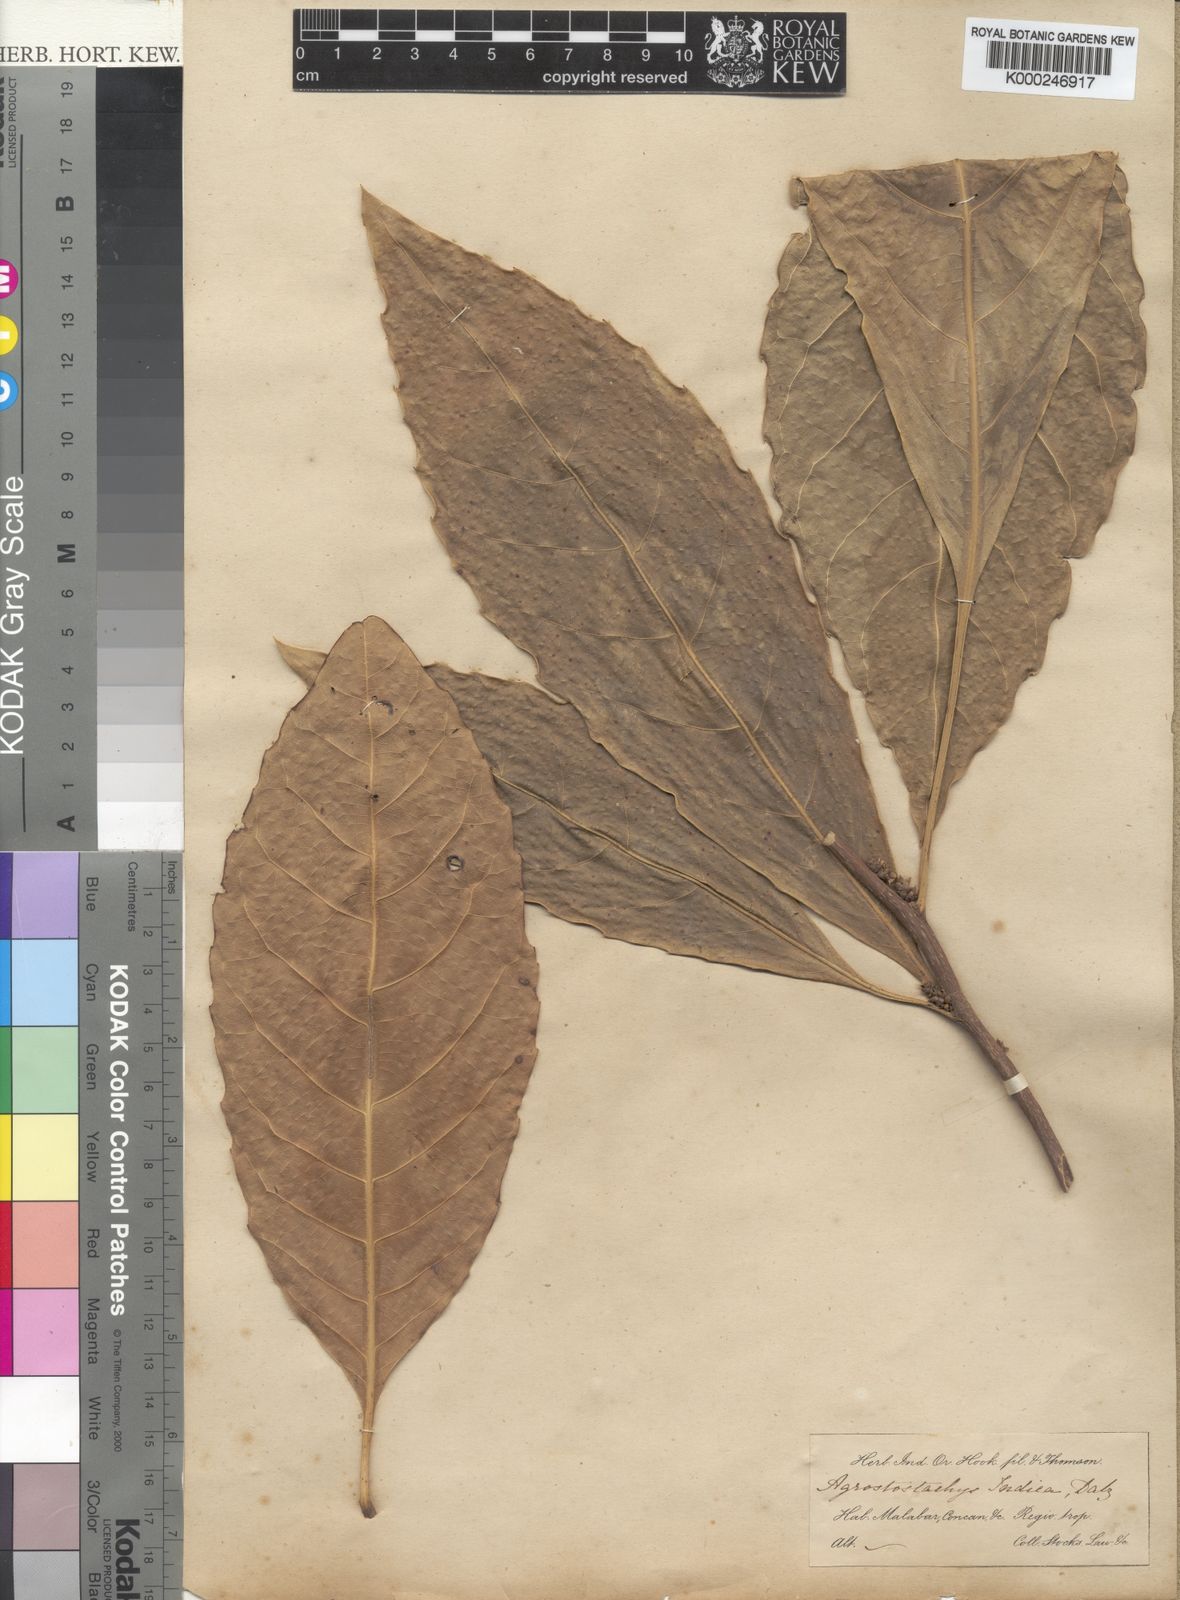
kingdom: Plantae
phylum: Tracheophyta
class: Magnoliopsida
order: Malpighiales
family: Euphorbiaceae
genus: Agrostistachys
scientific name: Agrostistachys indica
